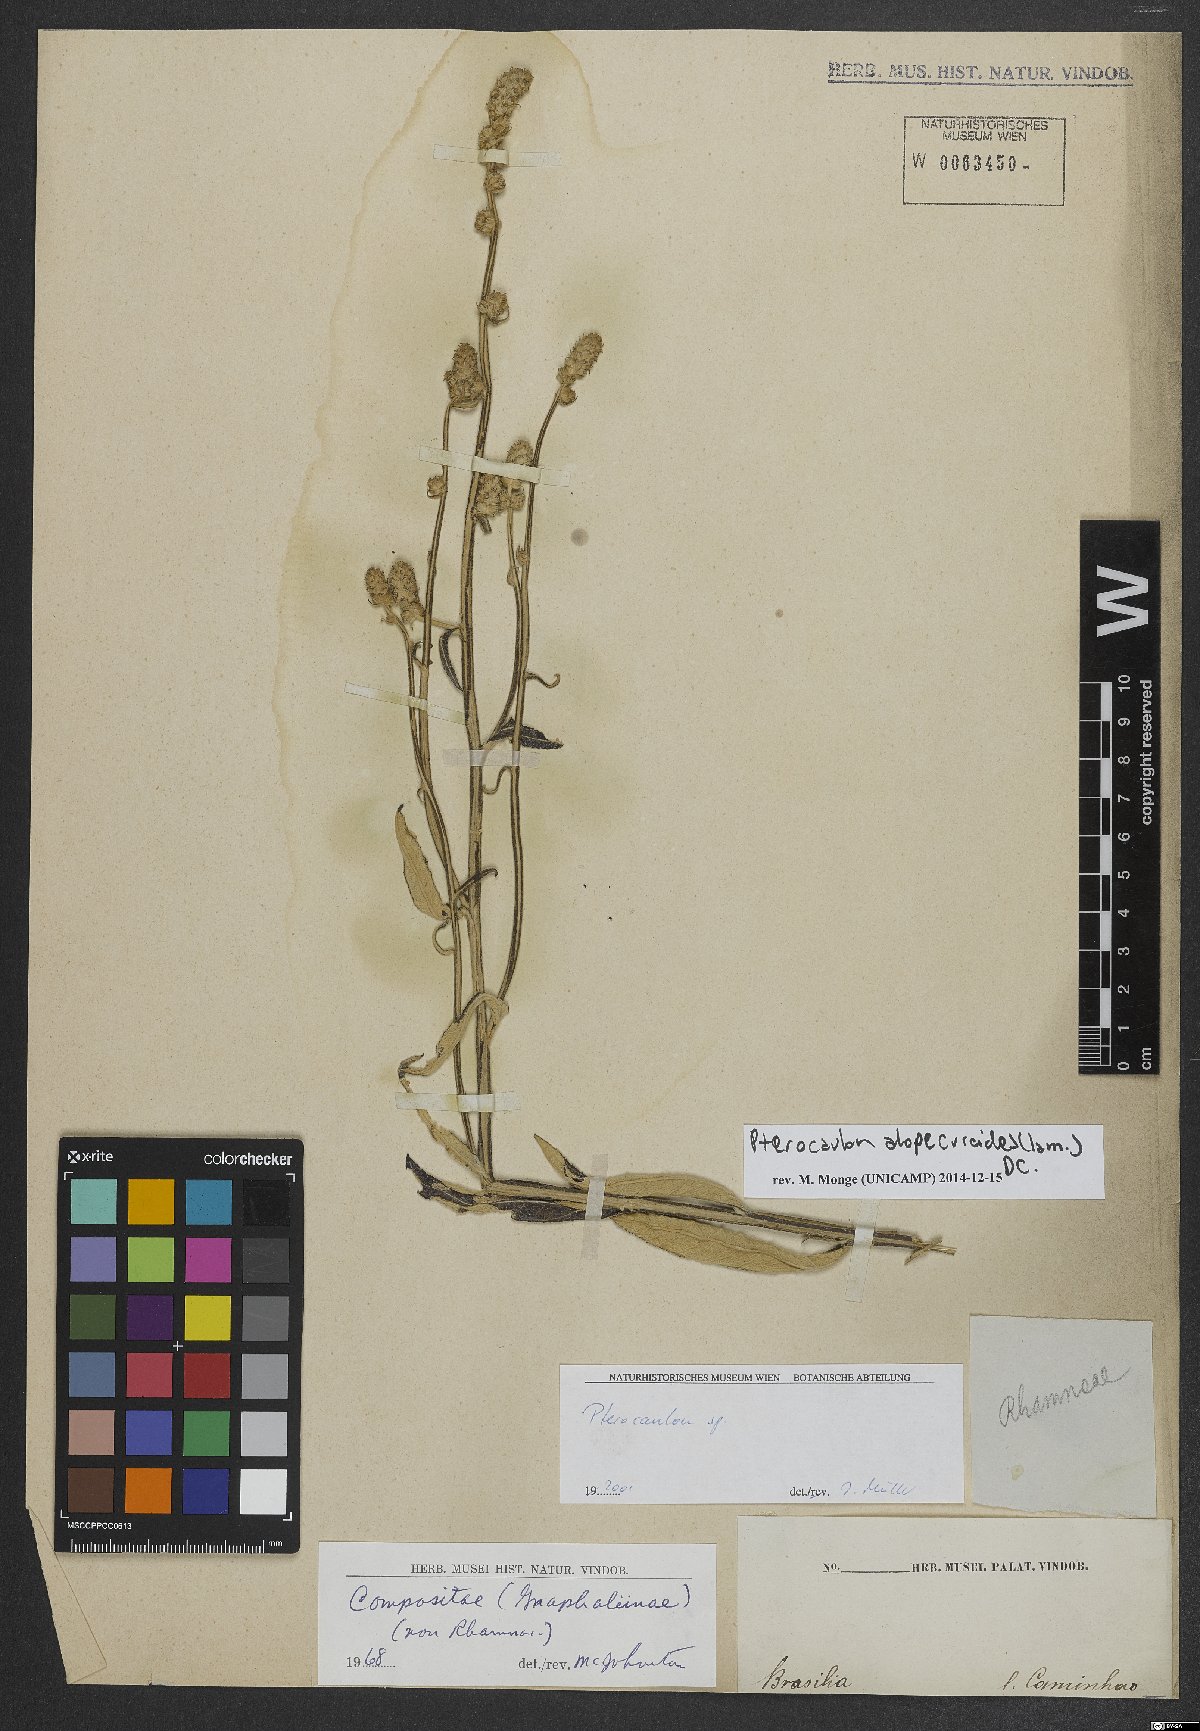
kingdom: Plantae
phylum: Tracheophyta
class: Magnoliopsida
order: Asterales
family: Asteraceae
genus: Pterocaulon
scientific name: Pterocaulon alopecuroides
